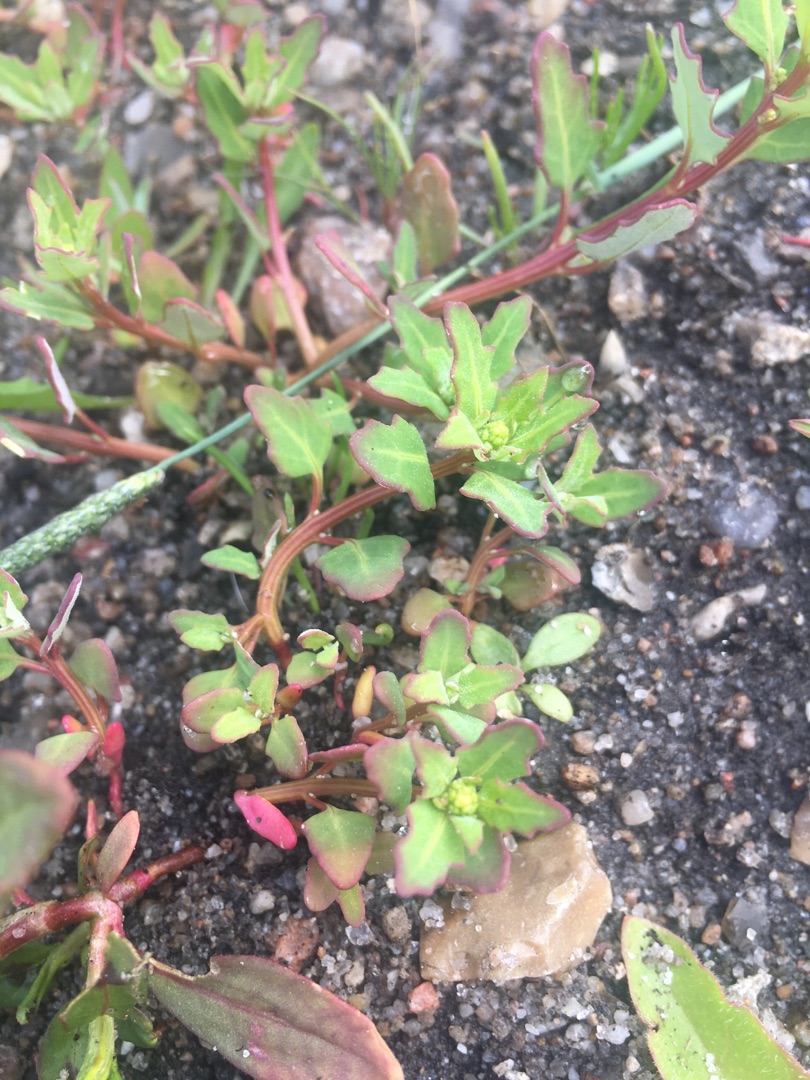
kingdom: Plantae
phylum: Tracheophyta
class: Magnoliopsida
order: Caryophyllales
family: Amaranthaceae
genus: Oxybasis
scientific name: Oxybasis glauca
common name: Blågrøn gåsefod
